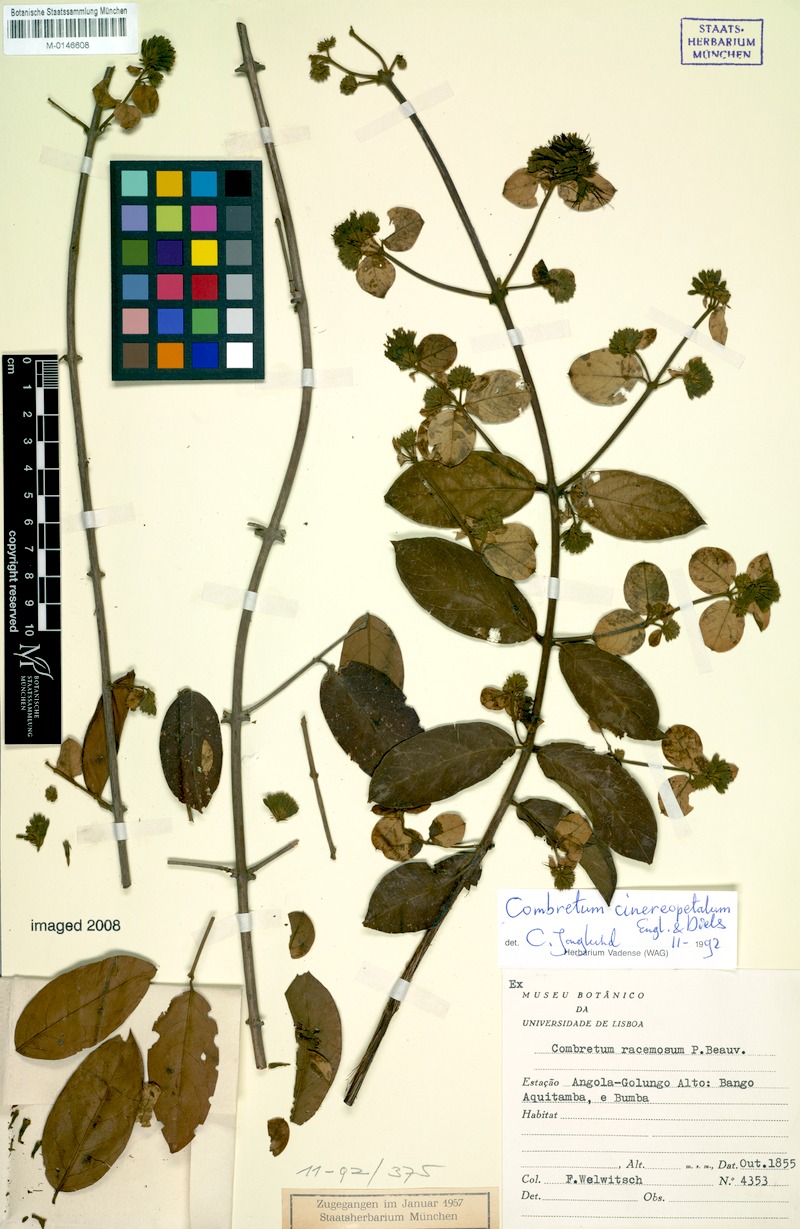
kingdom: Plantae
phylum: Tracheophyta
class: Magnoliopsida
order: Myrtales
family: Combretaceae
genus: Combretum
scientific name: Combretum cinereopetalum
